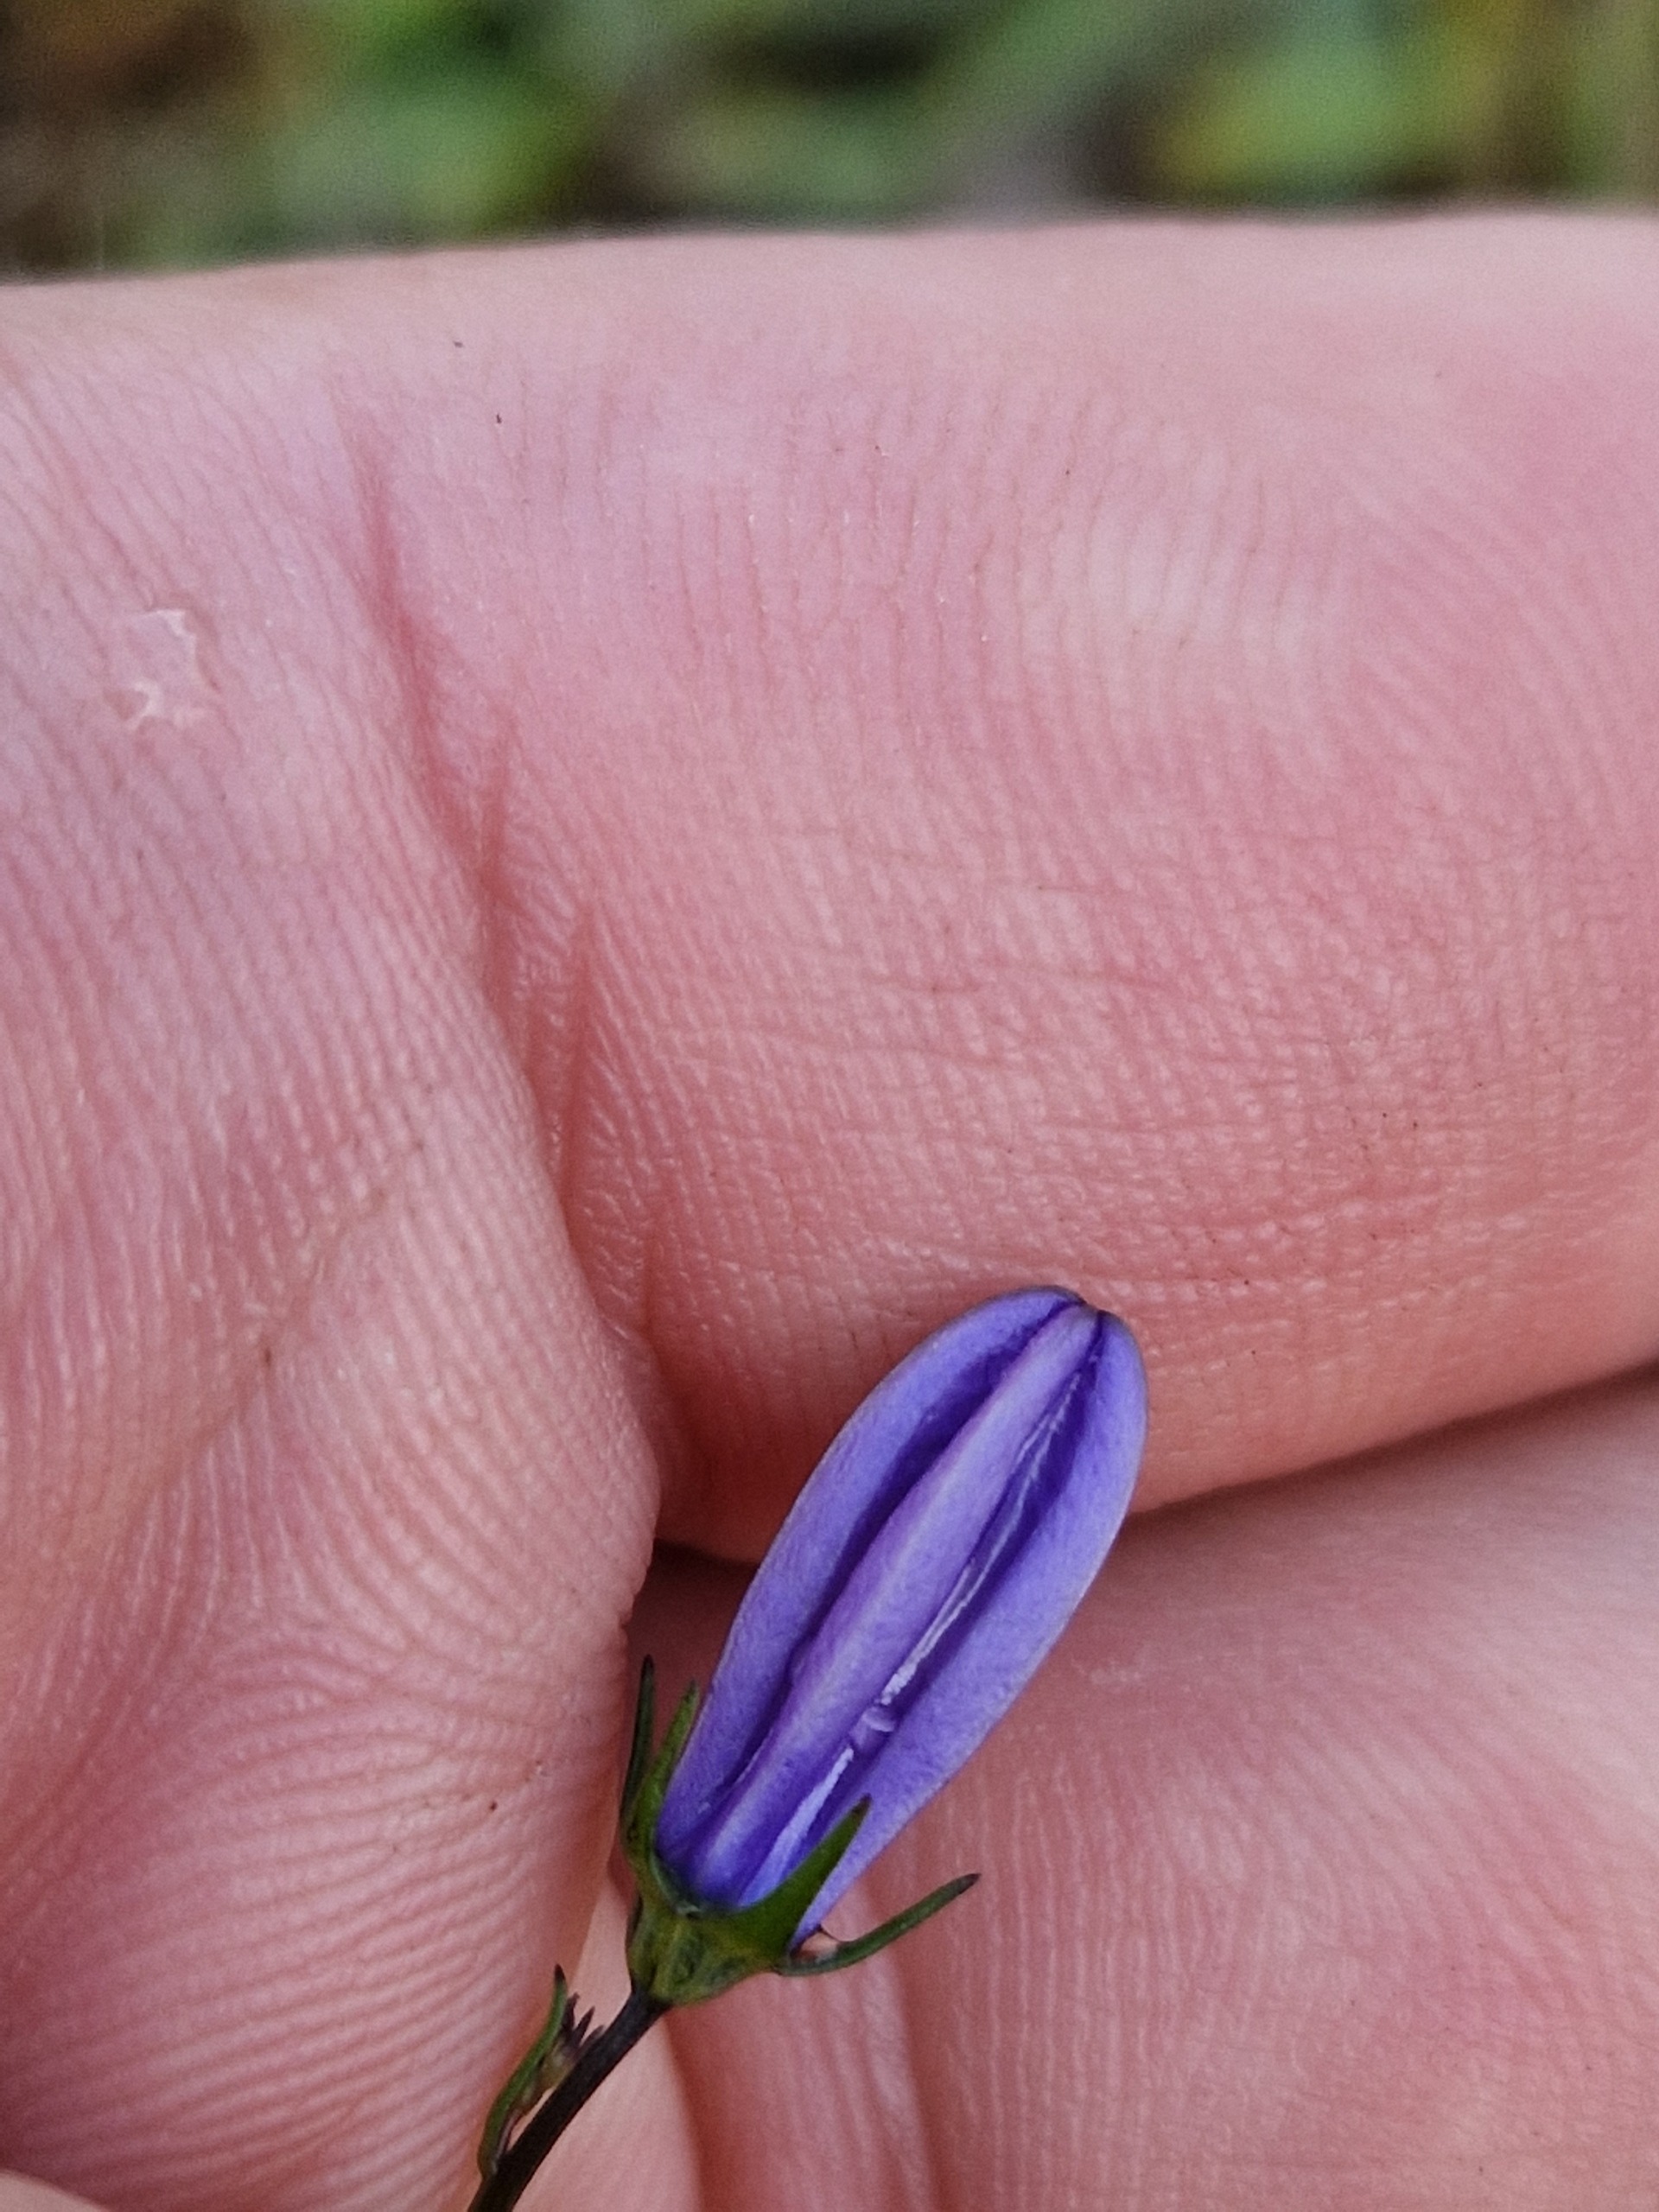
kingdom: Plantae
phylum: Tracheophyta
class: Magnoliopsida
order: Asterales
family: Campanulaceae
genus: Campanula
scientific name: Campanula rotundifolia
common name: Liden klokke
